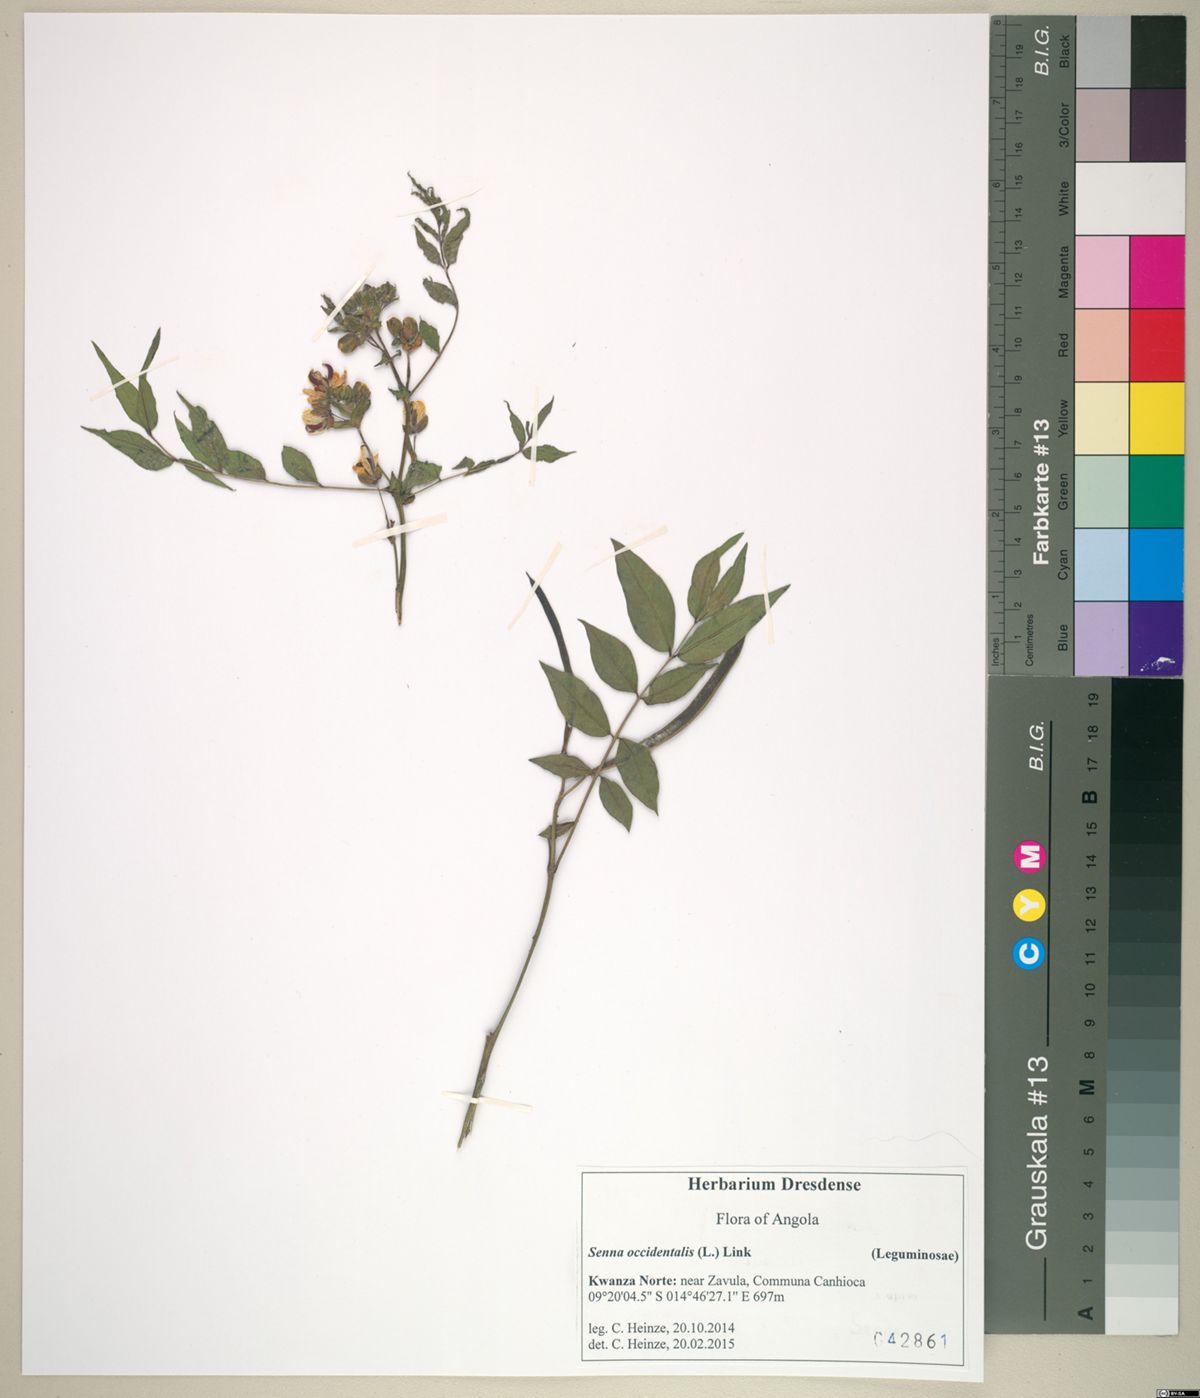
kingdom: Plantae
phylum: Tracheophyta
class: Magnoliopsida
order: Fabales
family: Fabaceae
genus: Senna
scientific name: Senna occidentalis
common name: Septicweed
